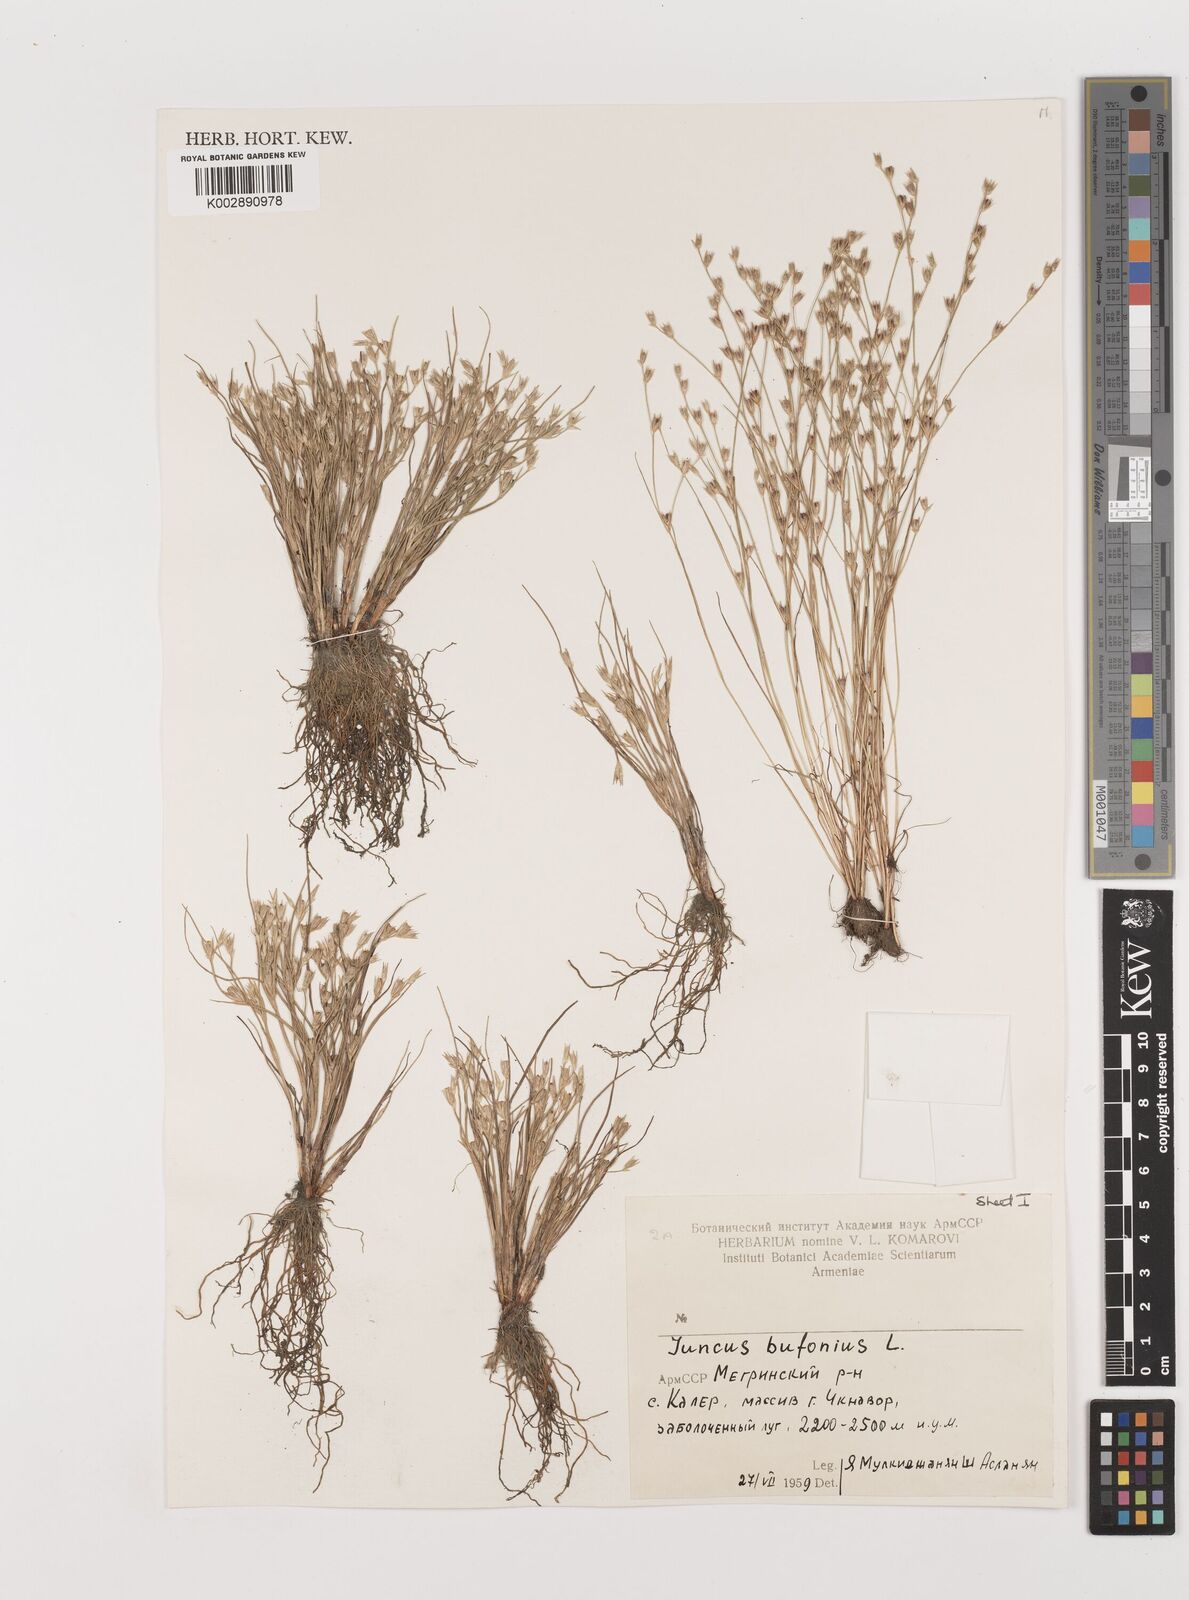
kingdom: Plantae
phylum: Tracheophyta
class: Liliopsida
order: Poales
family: Juncaceae
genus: Juncus
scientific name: Juncus bufonius
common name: Toad rush
